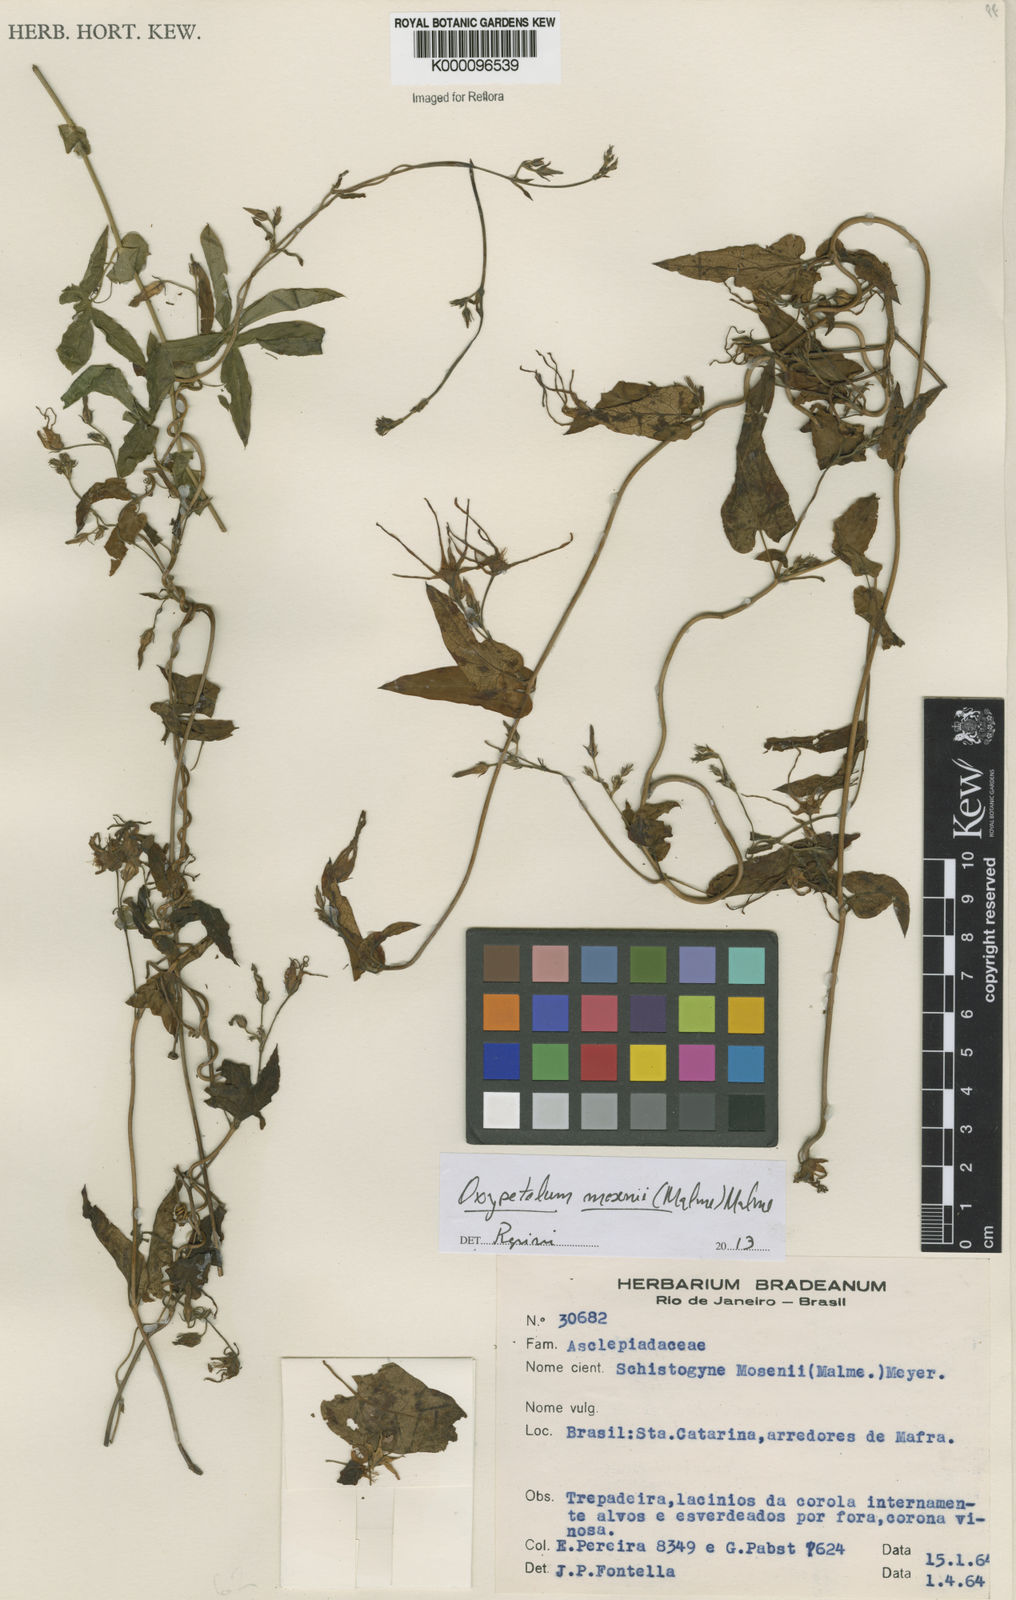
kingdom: Plantae
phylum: Tracheophyta
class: Magnoliopsida
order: Gentianales
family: Apocynaceae
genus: Oxypetalum
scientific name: Oxypetalum mosenii
